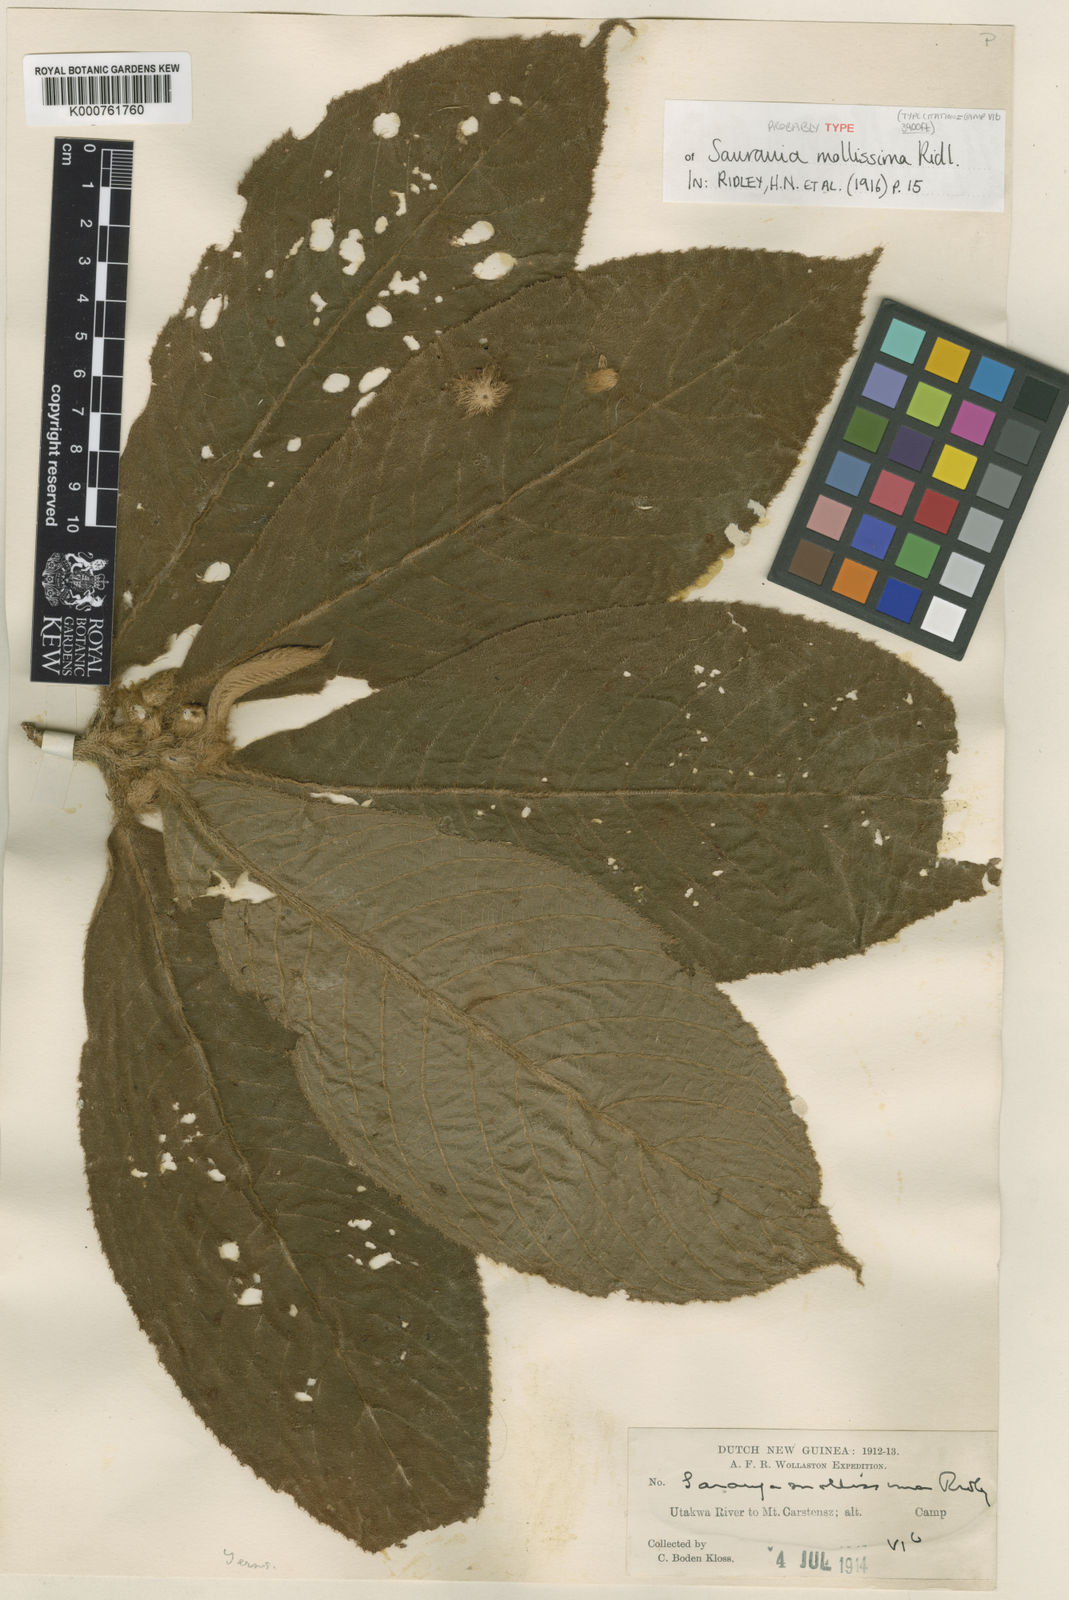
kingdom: Plantae
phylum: Tracheophyta
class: Magnoliopsida
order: Ericales
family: Actinidiaceae
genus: Saurauia
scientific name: Saurauia mollissima
